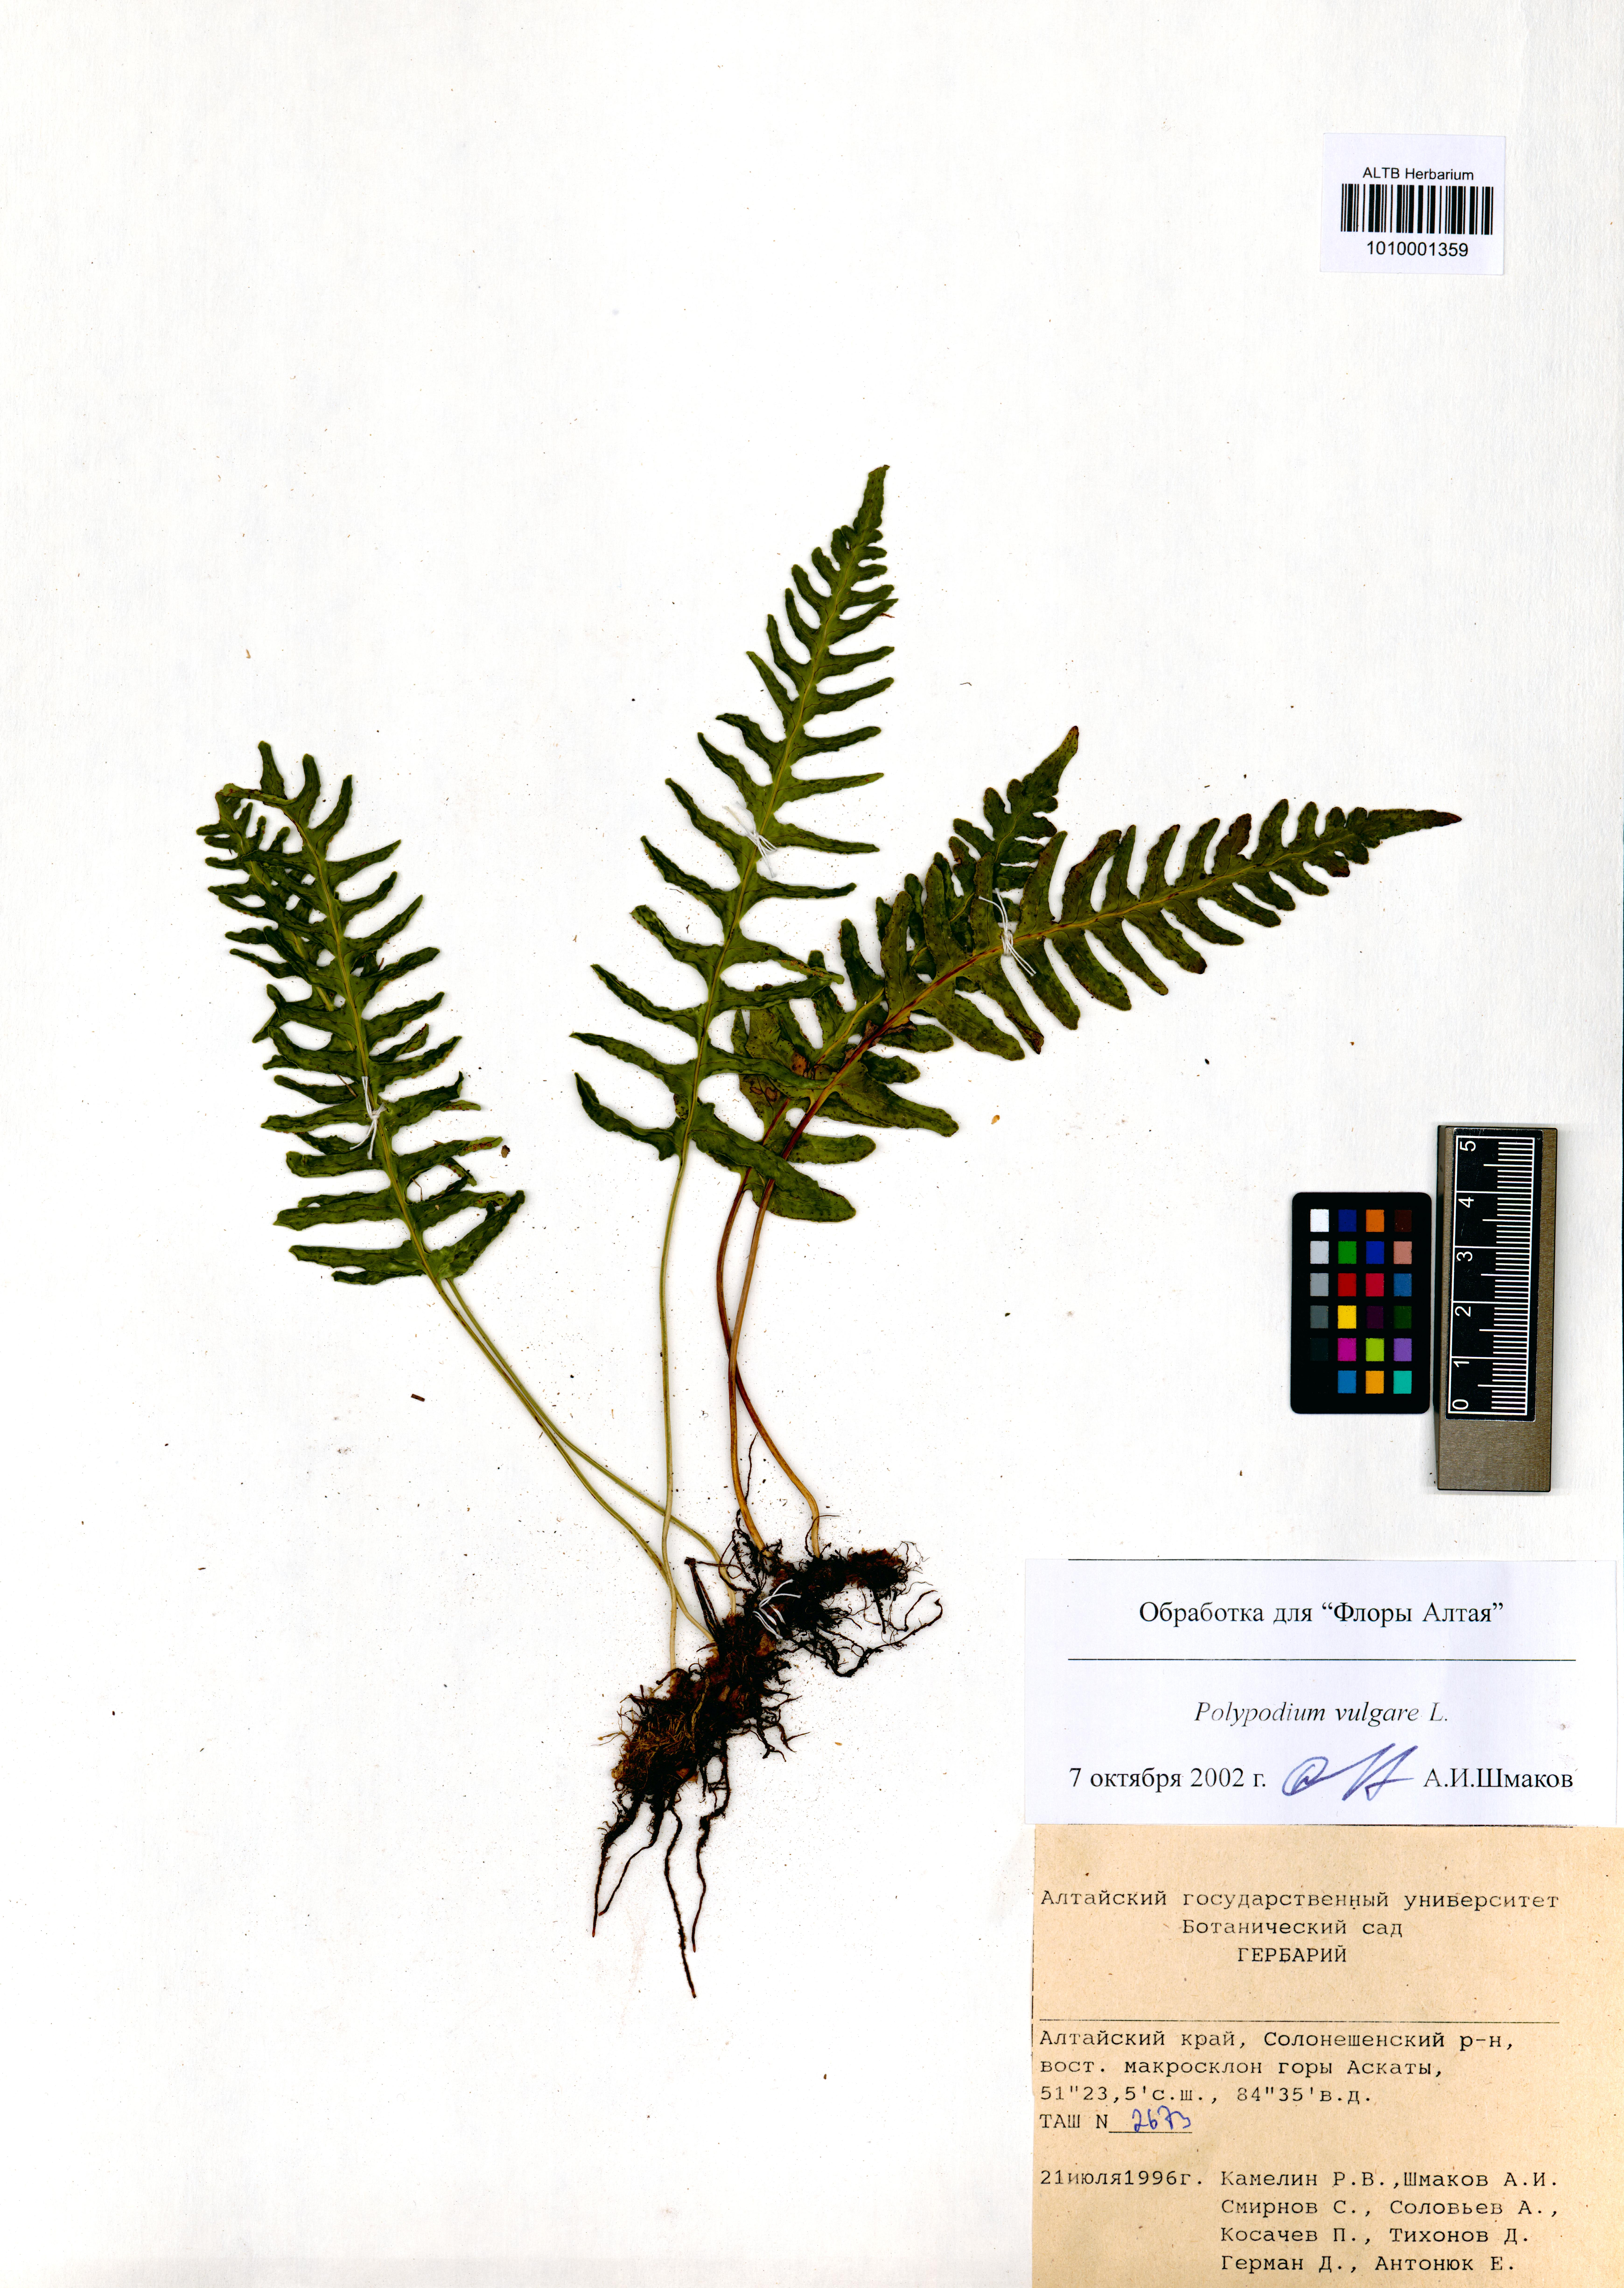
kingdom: Plantae
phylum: Tracheophyta
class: Polypodiopsida
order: Polypodiales
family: Polypodiaceae
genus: Polypodium
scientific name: Polypodium vulgare
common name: Common polypody
